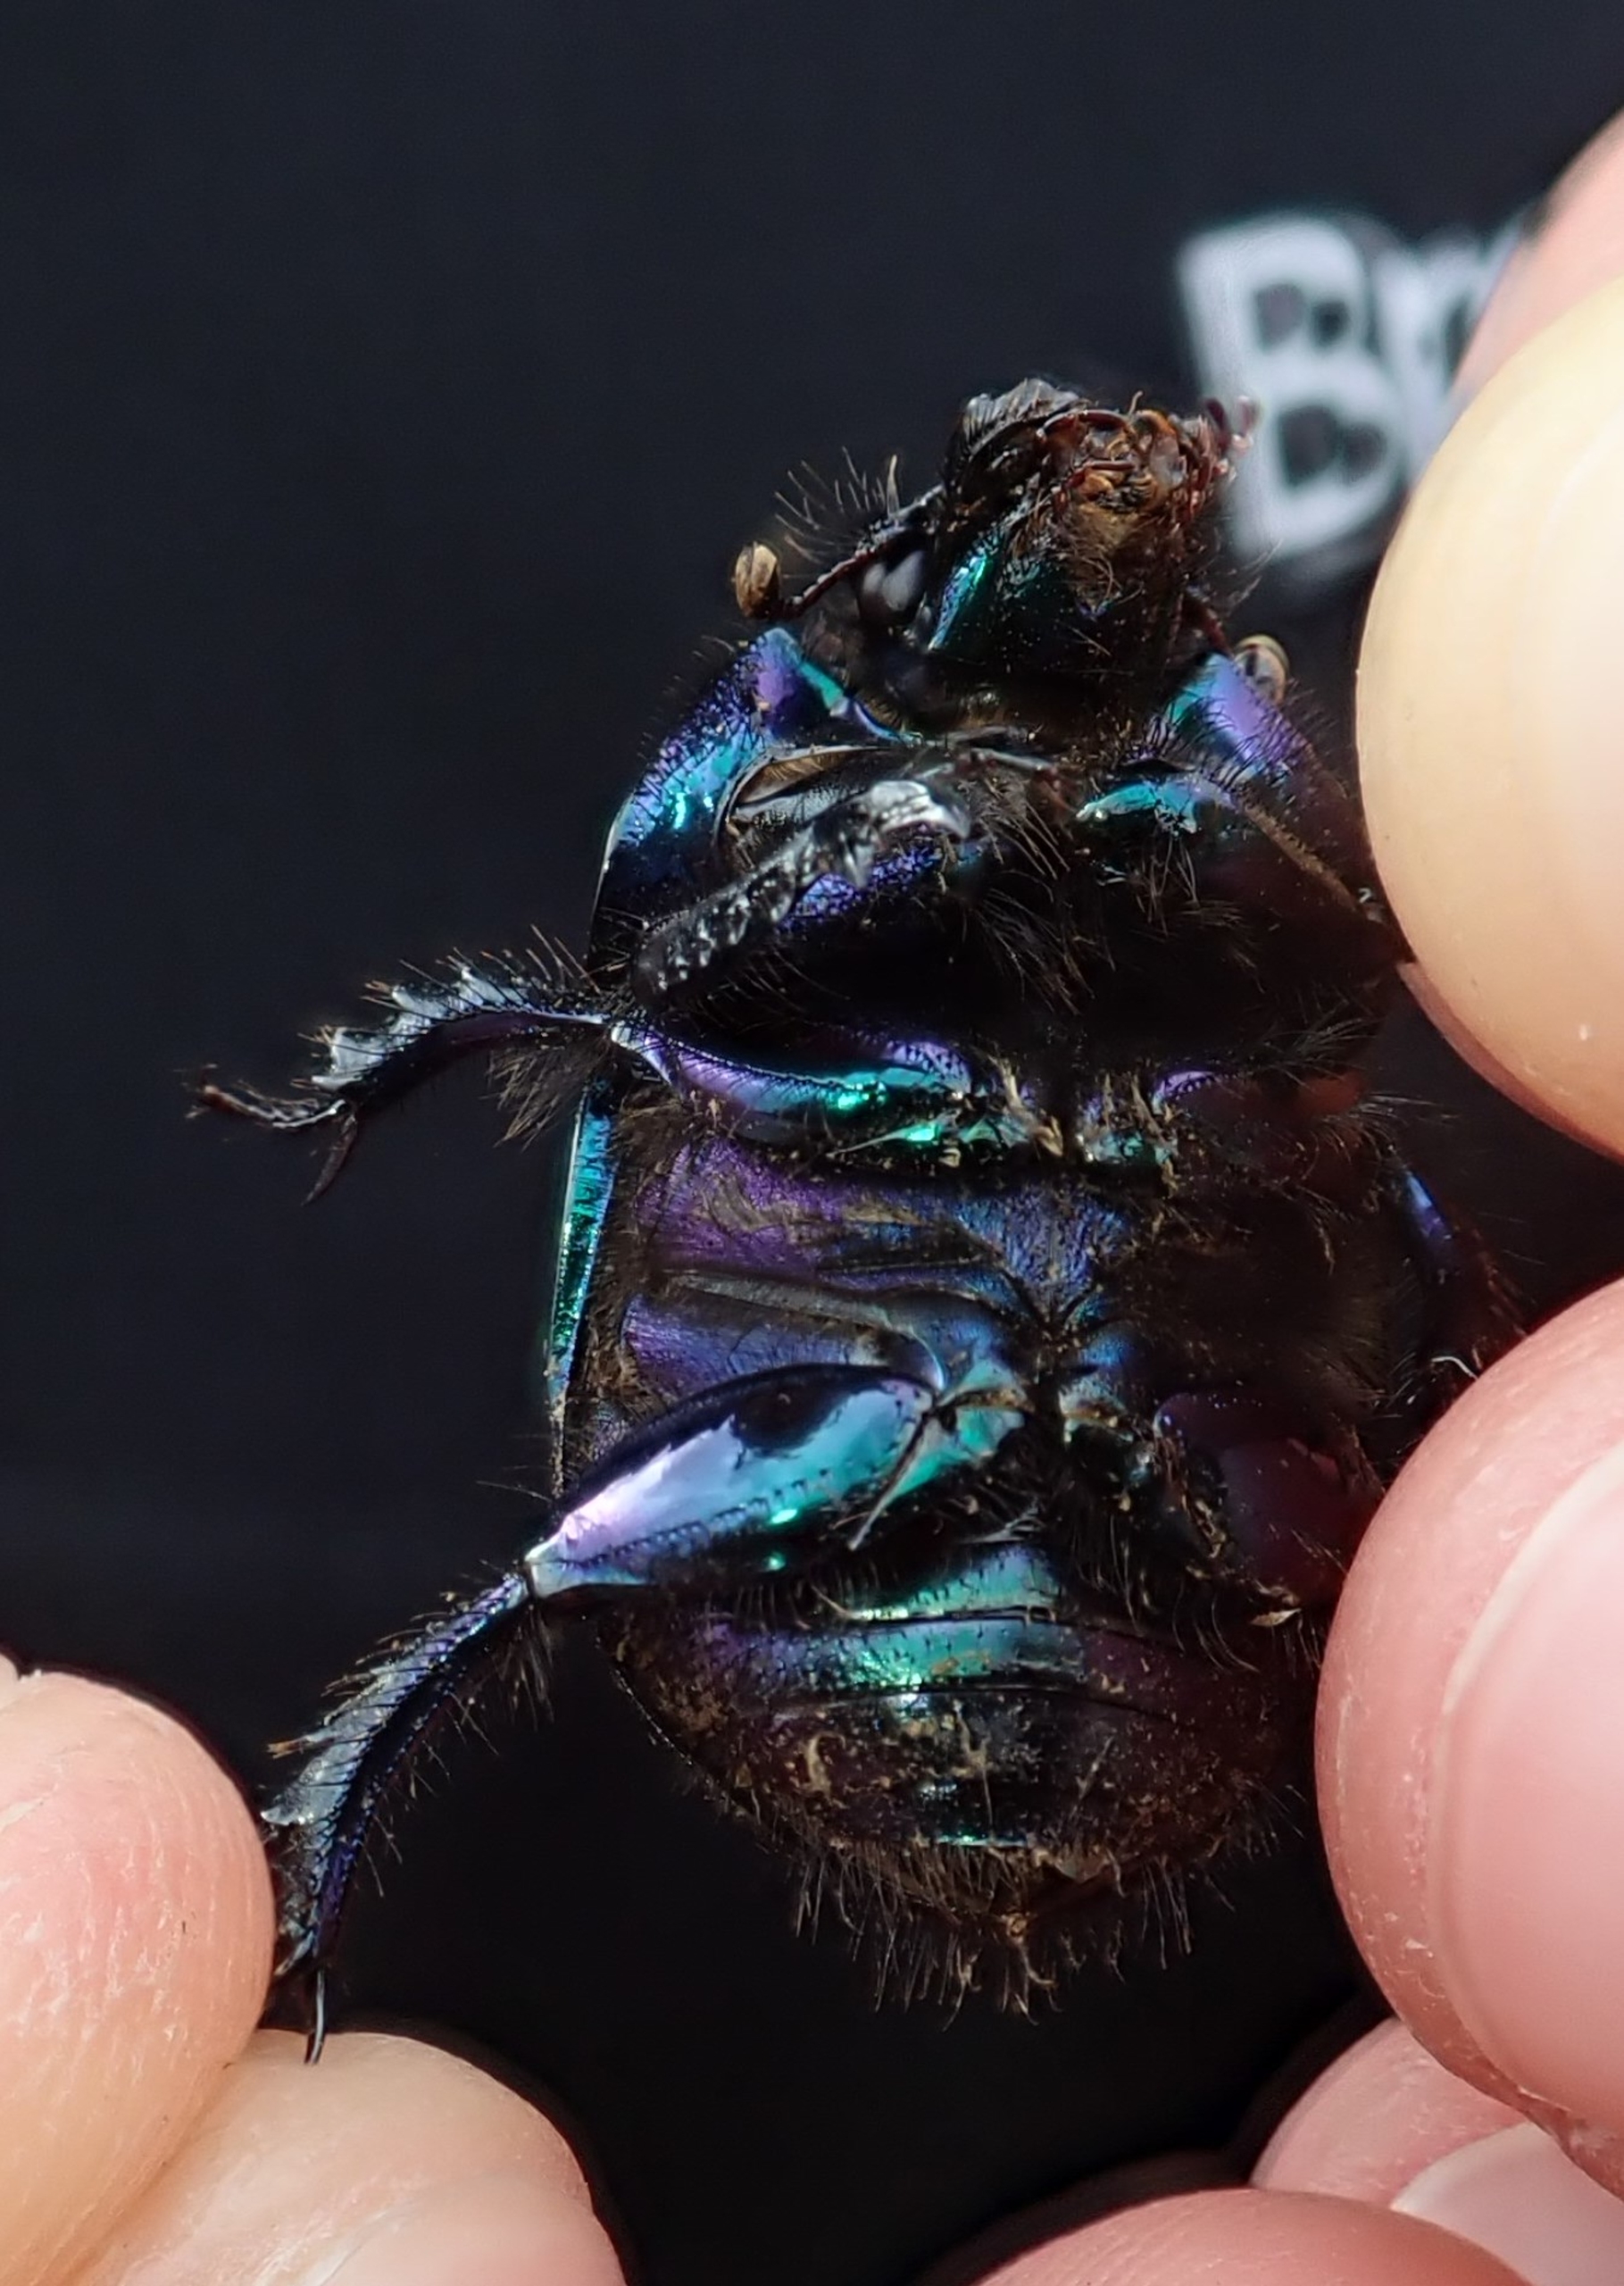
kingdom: Animalia
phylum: Arthropoda
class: Insecta
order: Coleoptera
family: Geotrupidae
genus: Geotrupes
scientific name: Geotrupes spiniger
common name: Markskarnbasse
